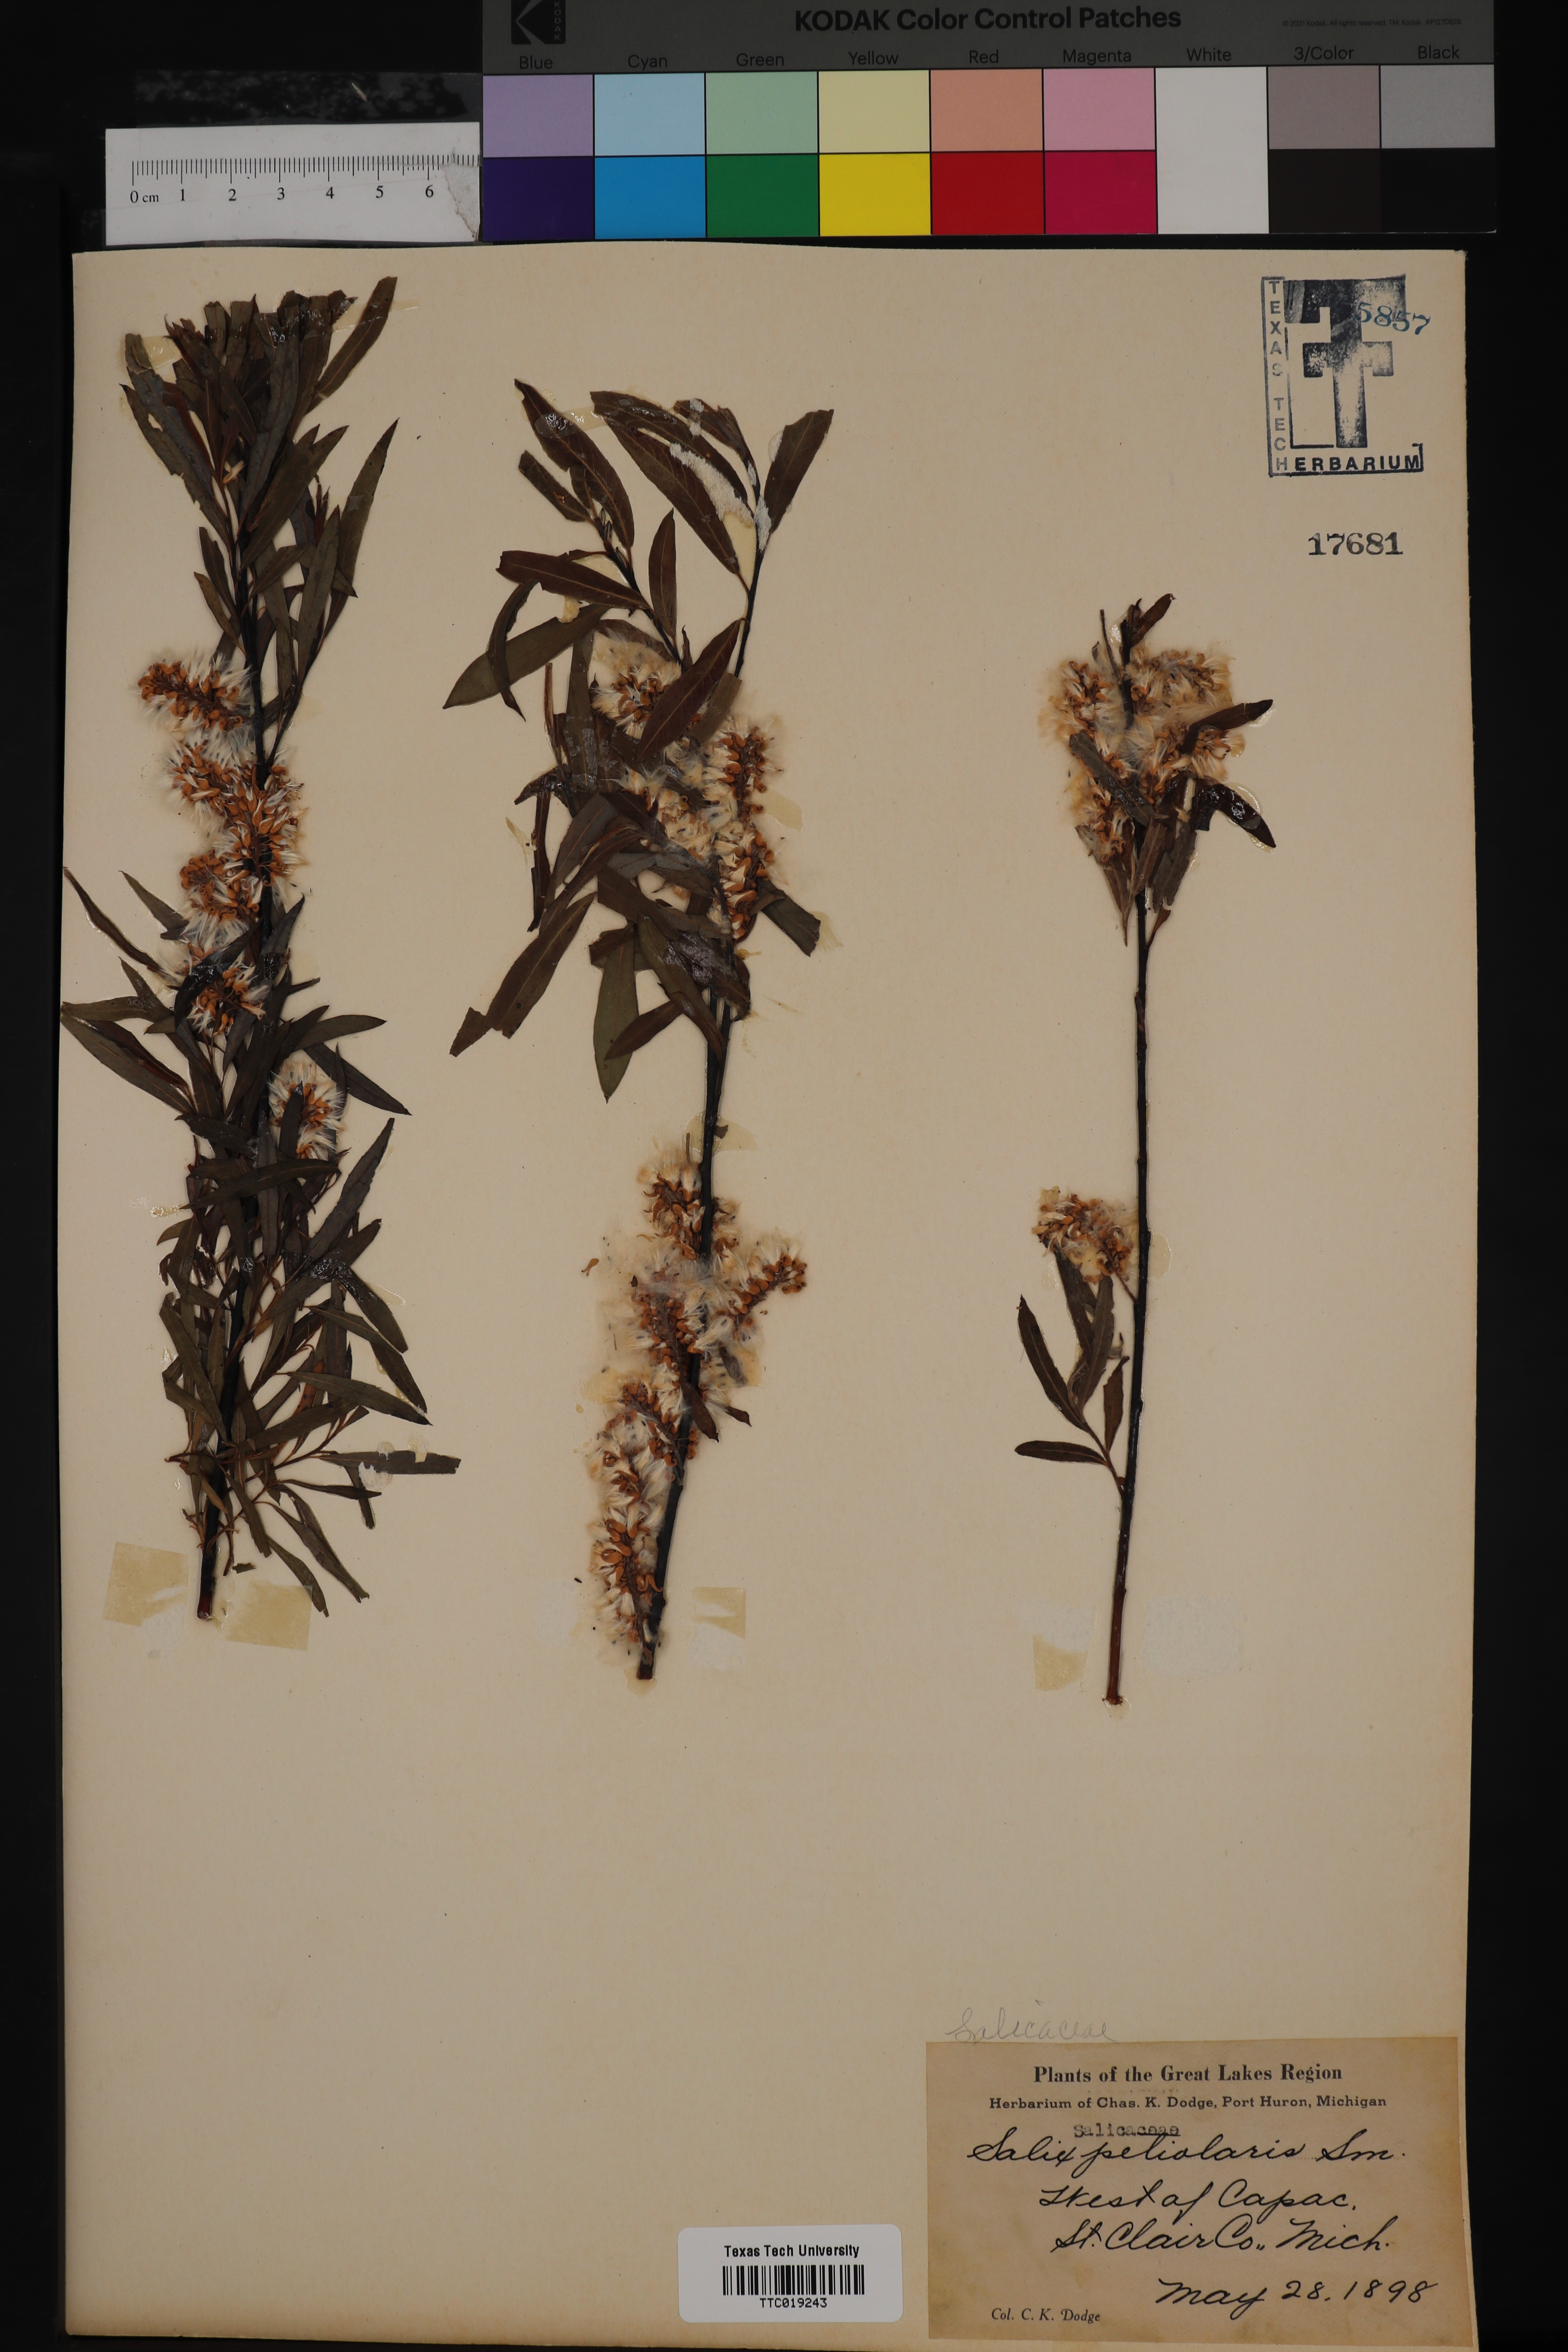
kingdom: Plantae
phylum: Tracheophyta
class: Magnoliopsida
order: Malpighiales
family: Salicaceae
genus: Salix
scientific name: Salix petiolaris
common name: Slender willow
